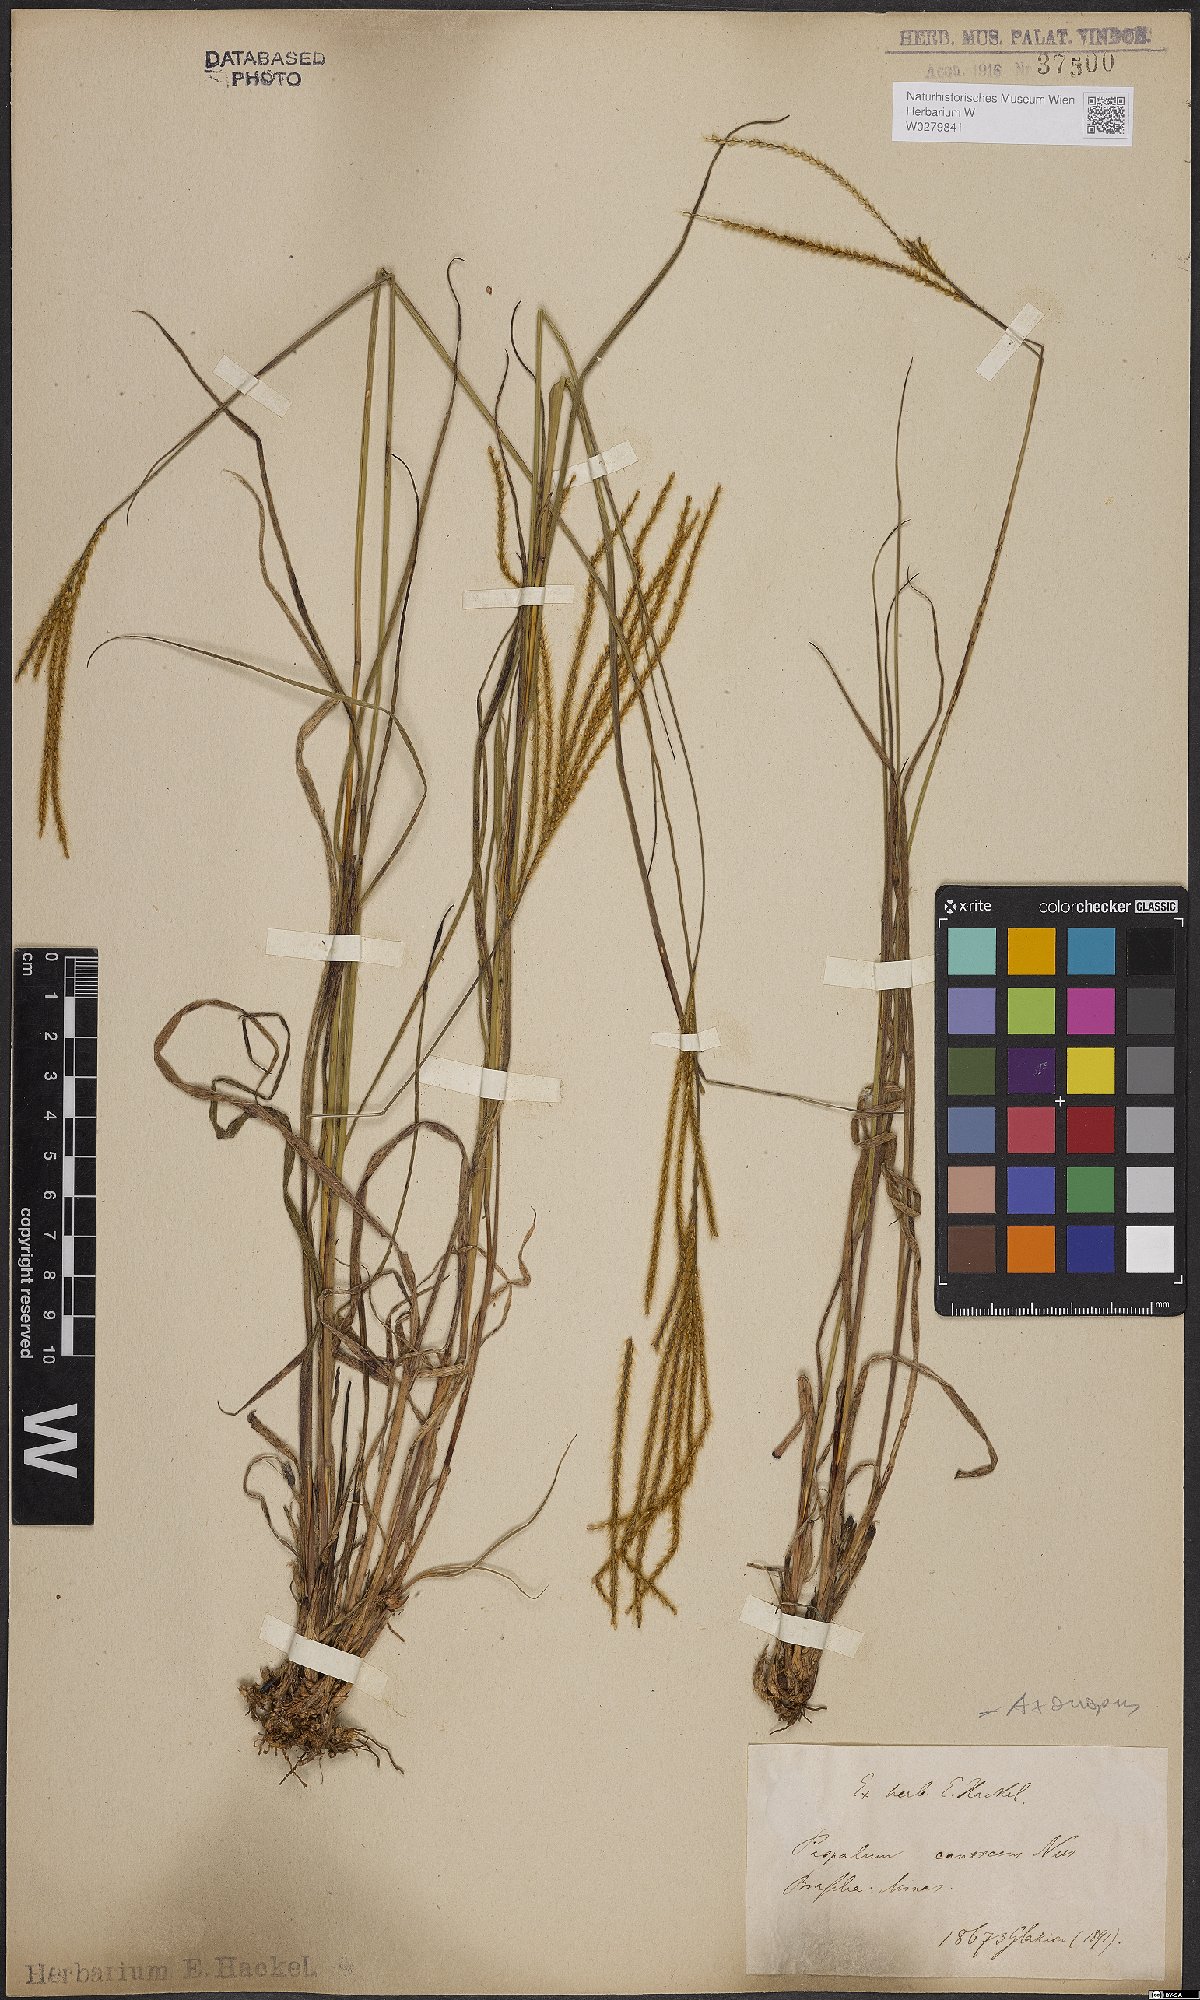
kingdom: Plantae
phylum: Tracheophyta
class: Liliopsida
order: Poales
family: Poaceae
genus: Axonopus
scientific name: Axonopus aureus
